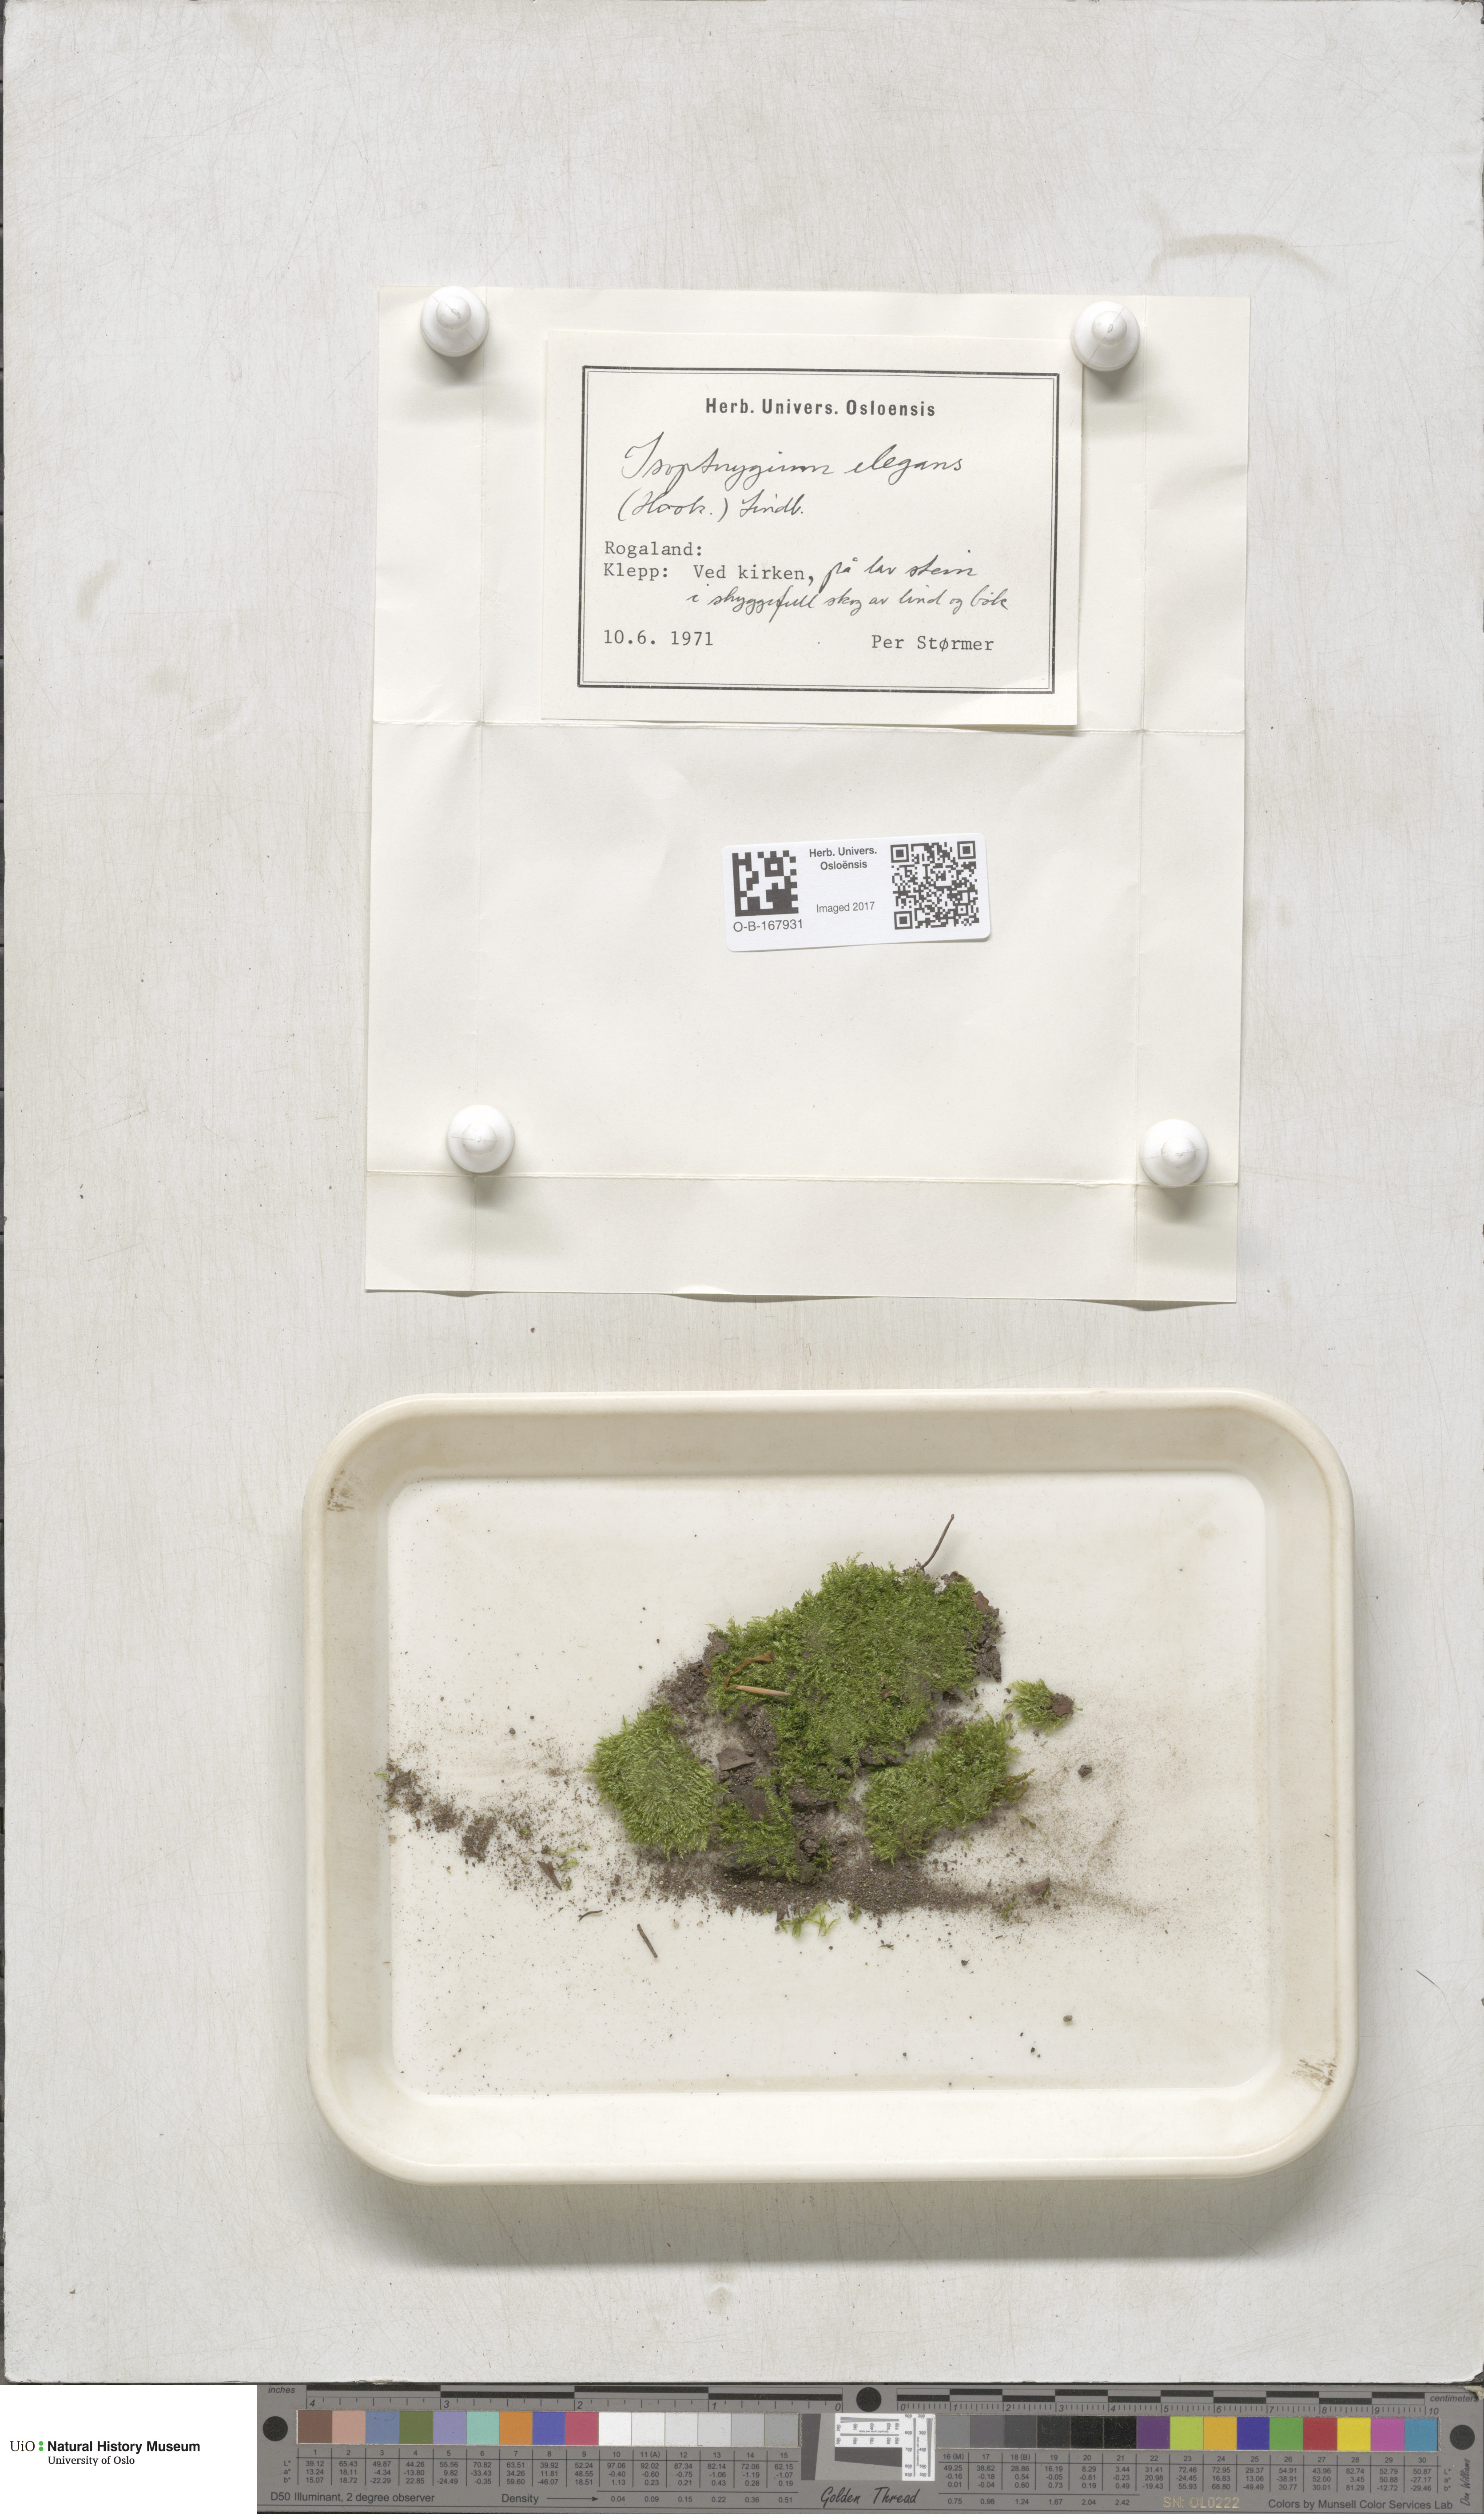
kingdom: Plantae
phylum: Bryophyta
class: Bryopsida
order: Hypnales
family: Plagiotheciaceae
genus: Pseudotaxiphyllum
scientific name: Pseudotaxiphyllum elegans
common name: Elegant silk moss
